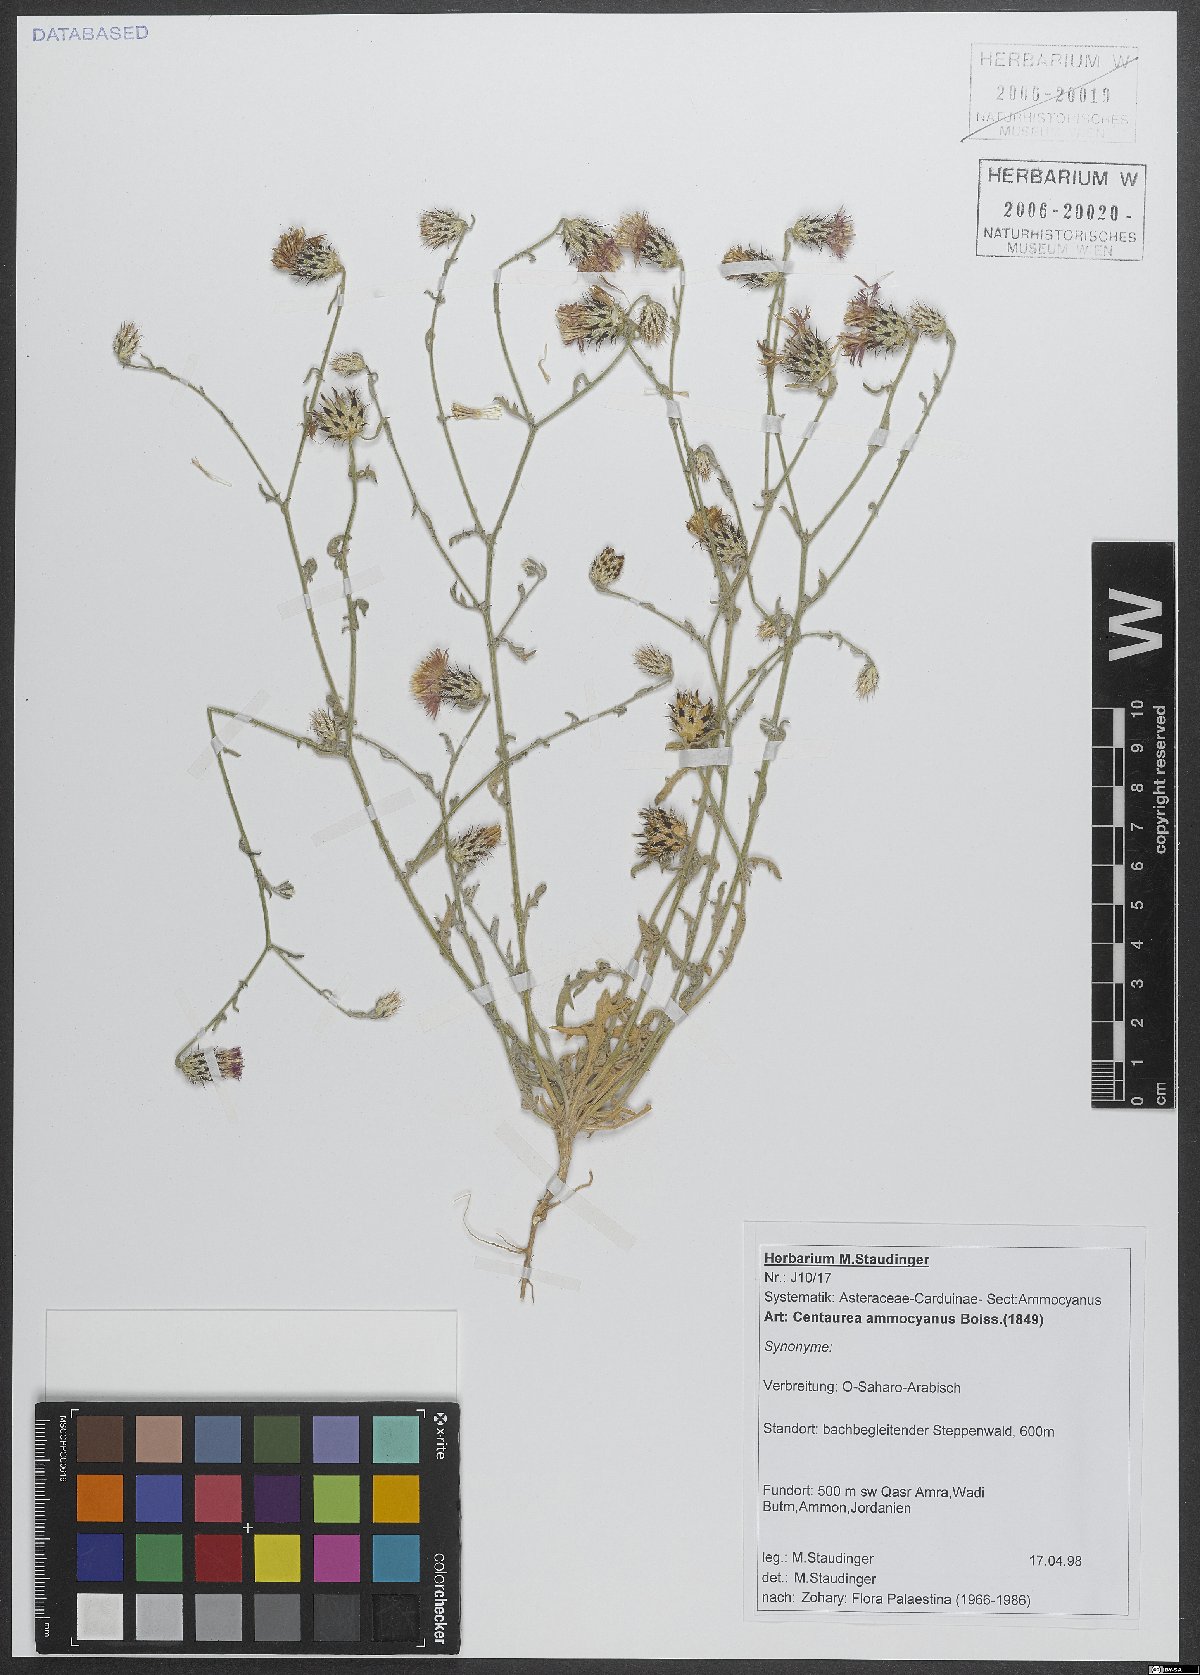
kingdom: Plantae
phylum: Tracheophyta
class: Magnoliopsida
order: Asterales
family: Asteraceae
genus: Centaurea
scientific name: Centaurea ammocyanus
